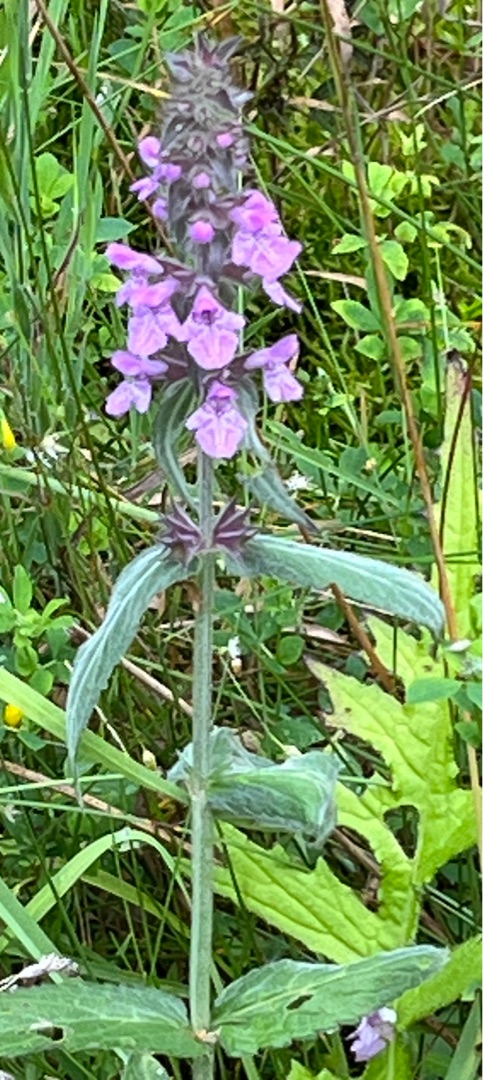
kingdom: Plantae
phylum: Tracheophyta
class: Magnoliopsida
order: Lamiales
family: Lamiaceae
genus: Stachys
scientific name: Stachys palustris
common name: Kær-galtetand
